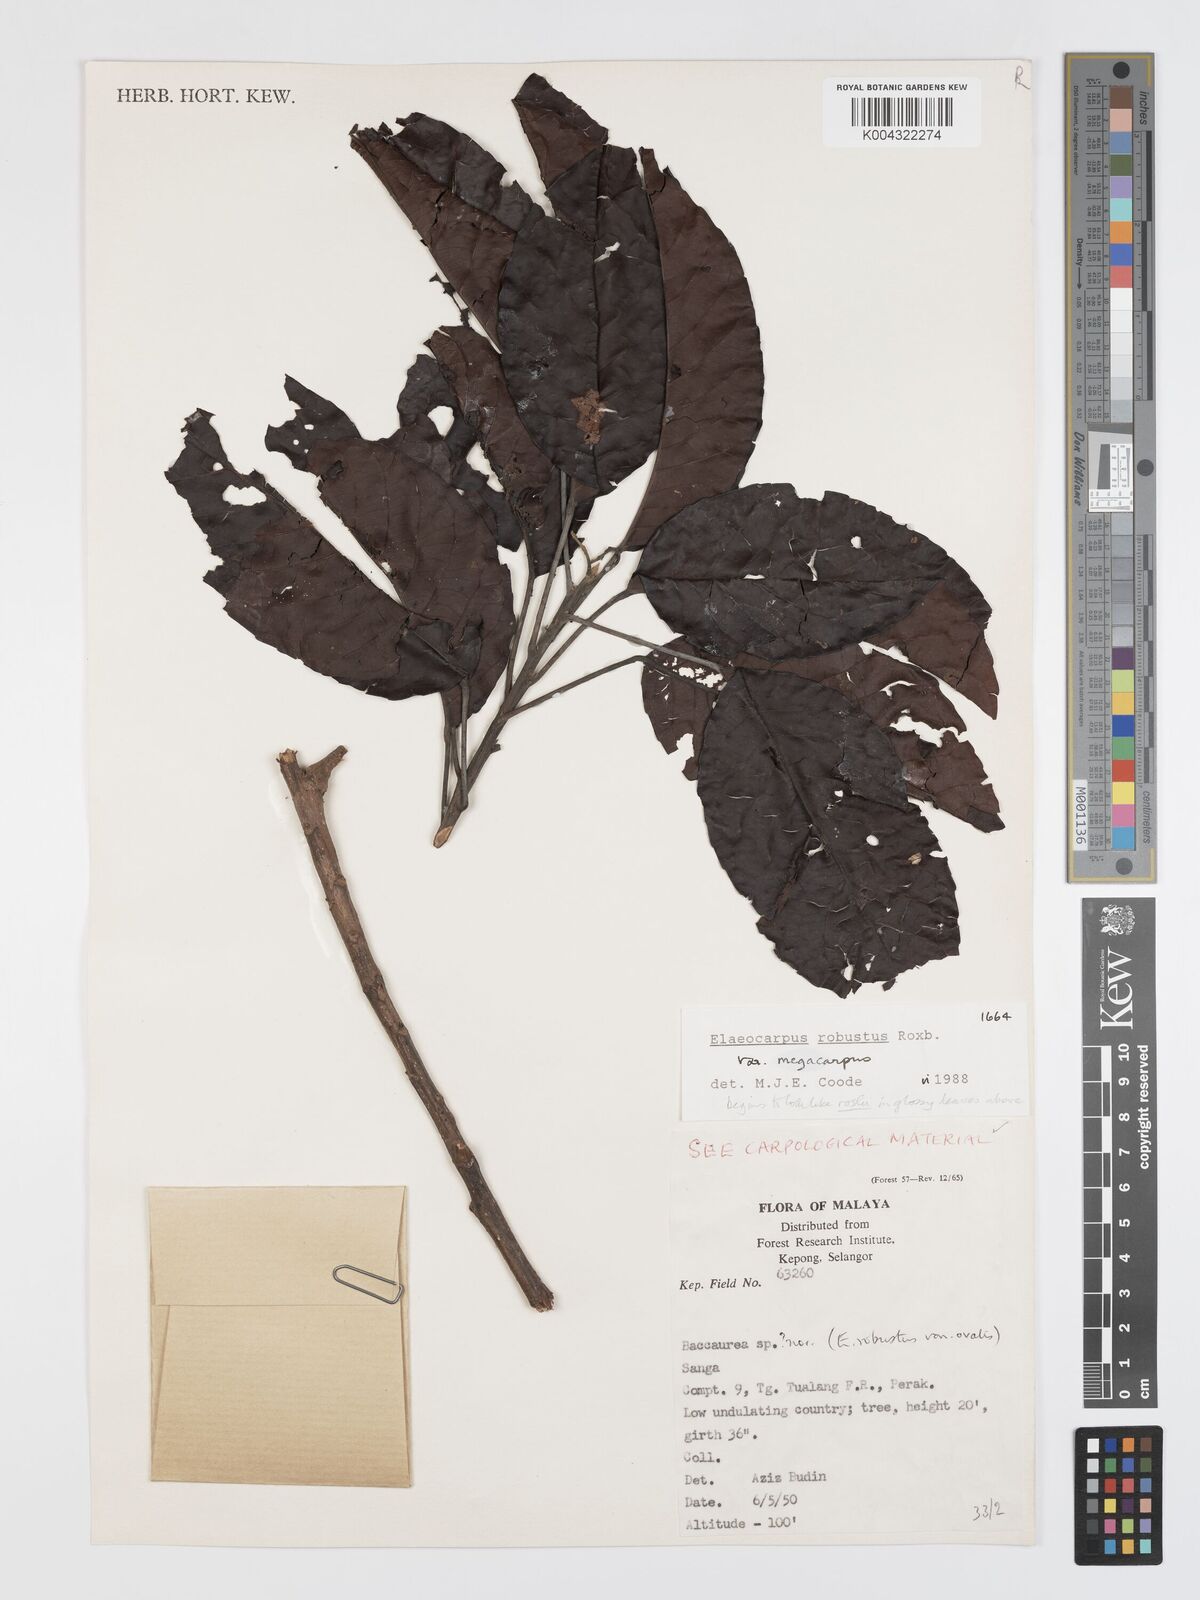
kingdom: Plantae
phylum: Tracheophyta
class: Magnoliopsida
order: Oxalidales
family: Elaeocarpaceae
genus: Elaeocarpus
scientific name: Elaeocarpus robustus
